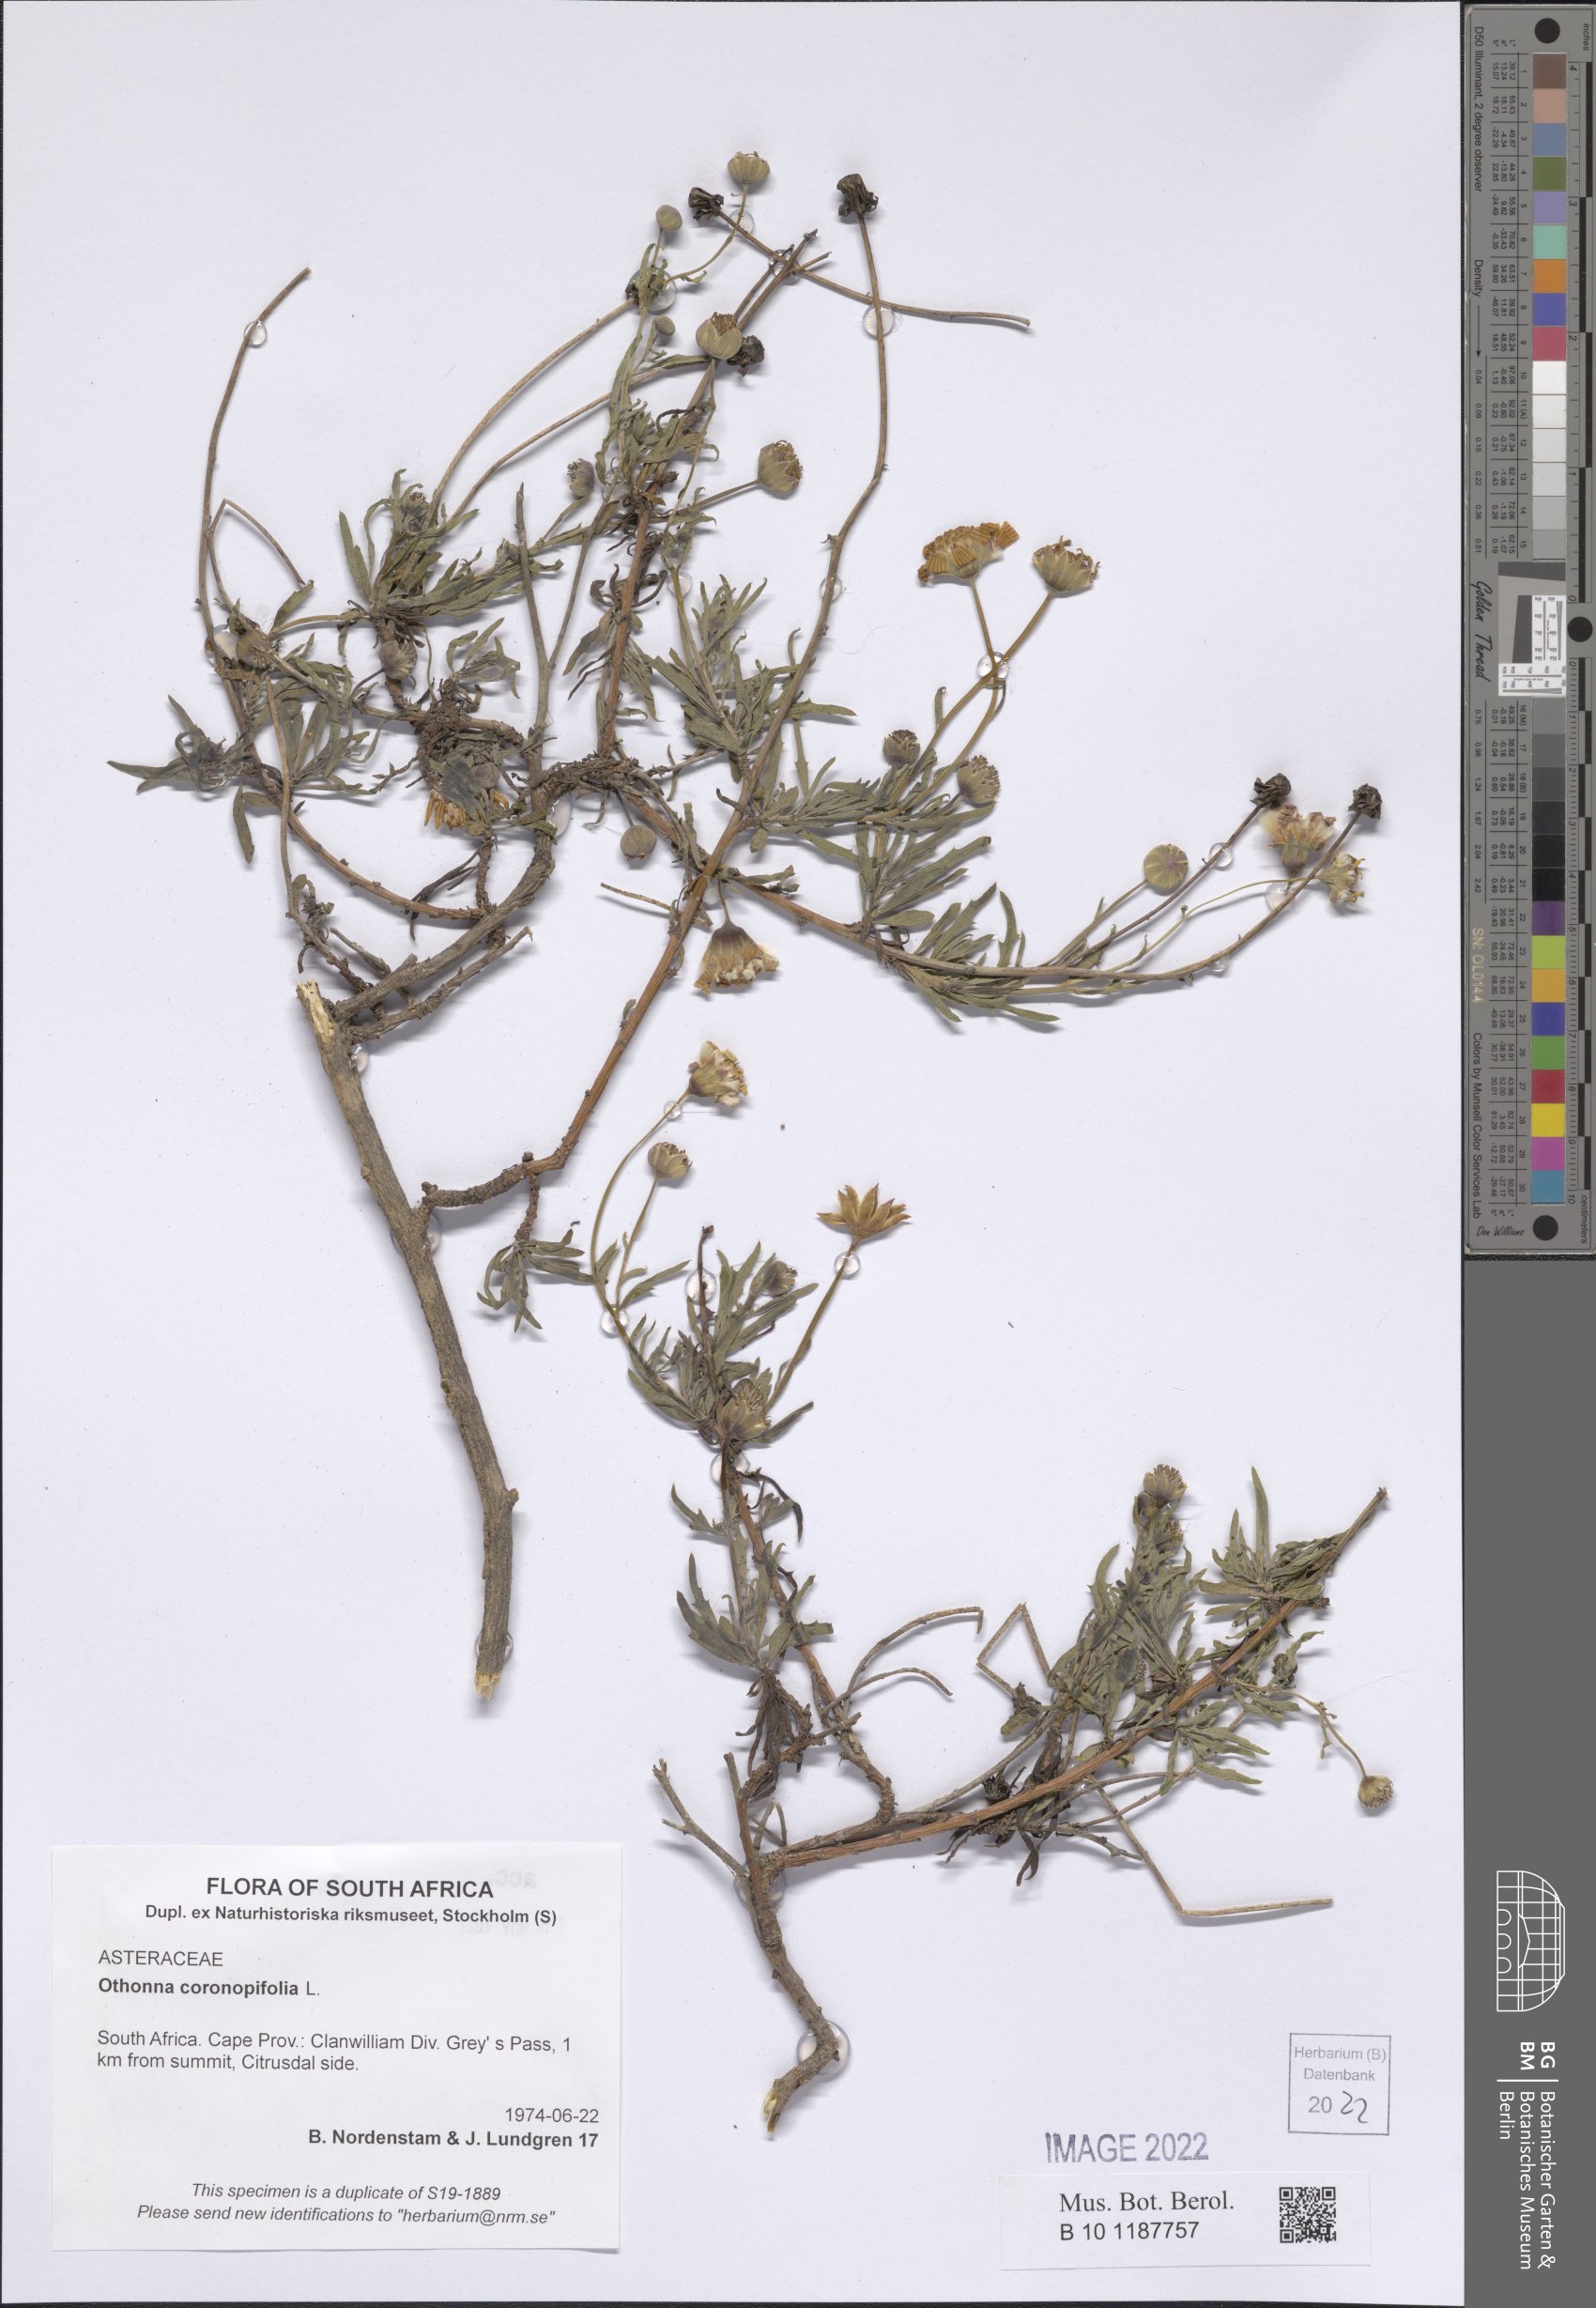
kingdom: Plantae
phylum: Tracheophyta
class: Magnoliopsida
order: Asterales
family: Asteraceae
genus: Othonna
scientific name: Othonna coronopifolia
